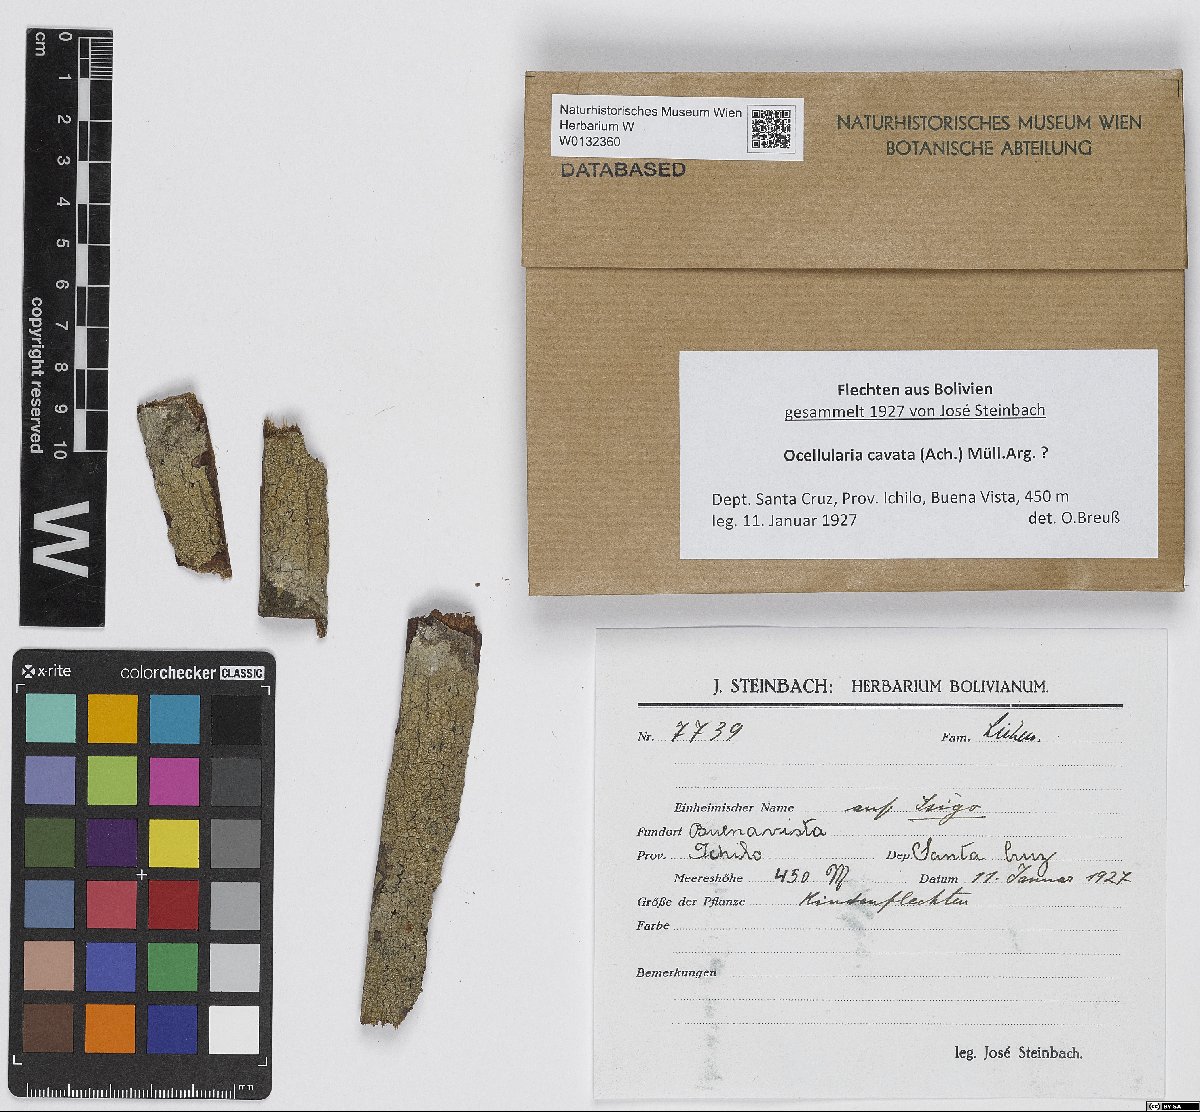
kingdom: Fungi
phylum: Ascomycota
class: Lecanoromycetes
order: Ostropales
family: Graphidaceae
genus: Ocellularia
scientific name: Ocellularia cavata
